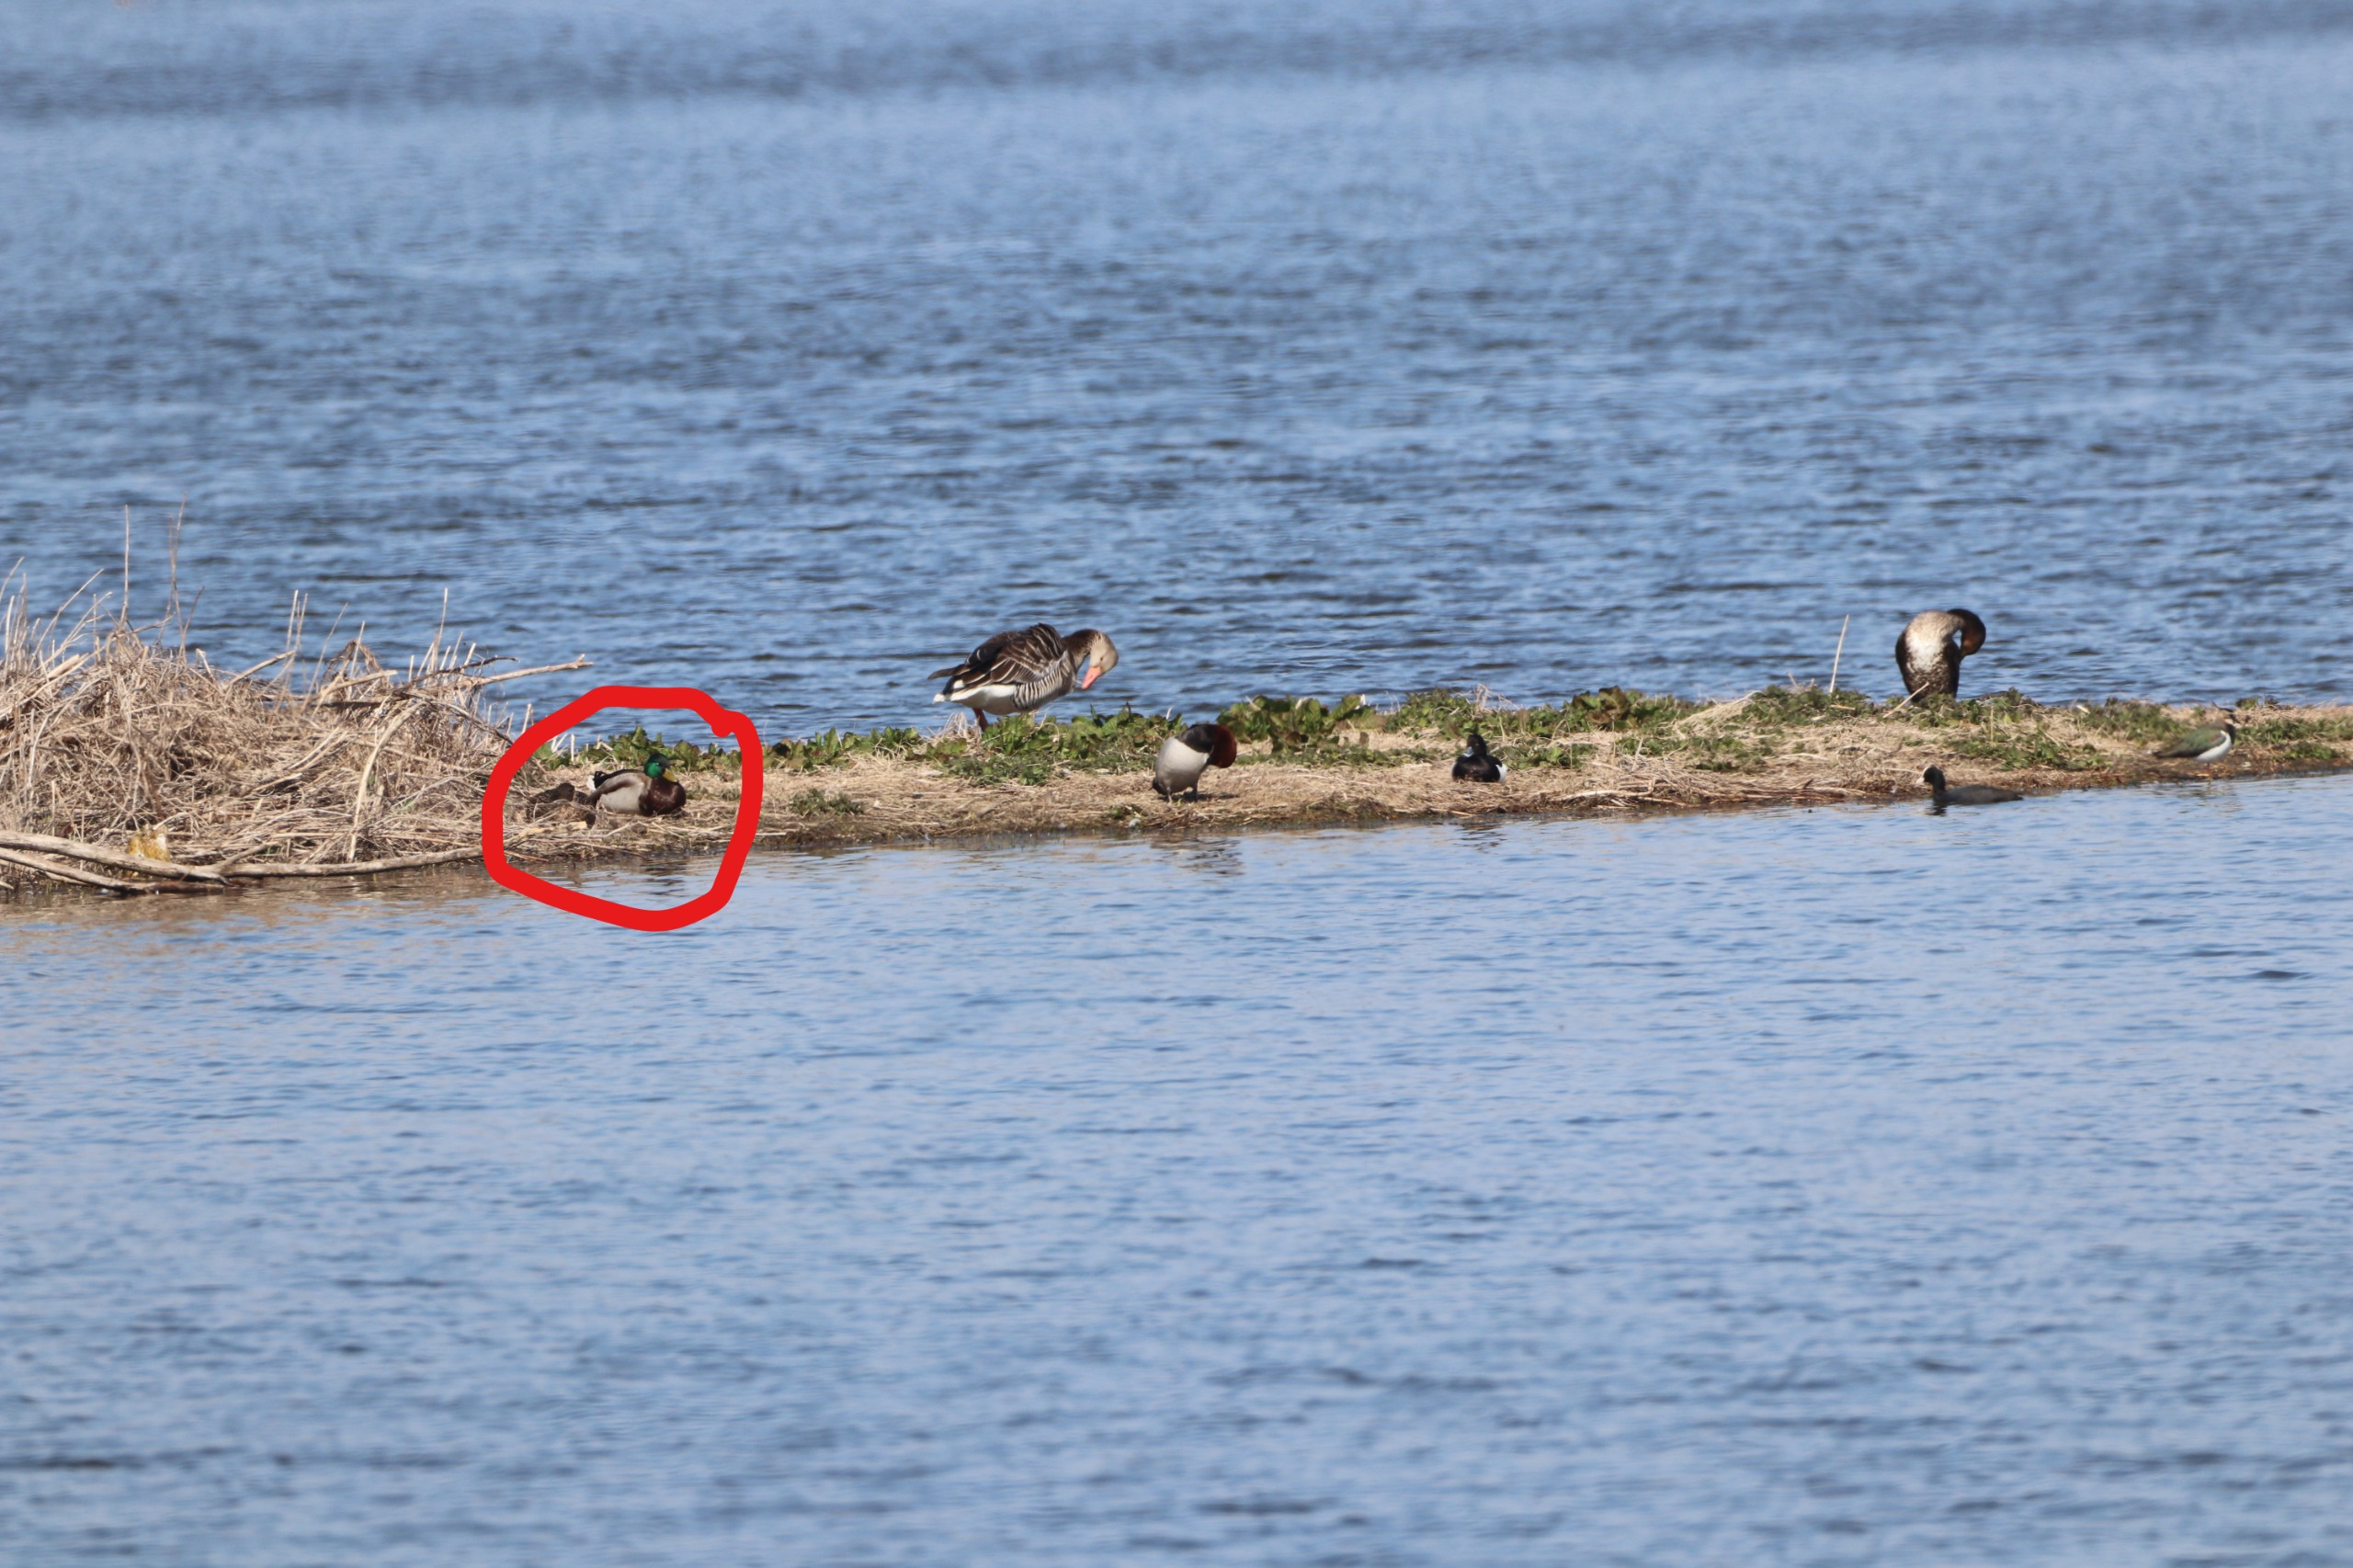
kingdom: Animalia
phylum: Chordata
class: Aves
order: Anseriformes
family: Anatidae
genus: Anas
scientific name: Anas platyrhynchos
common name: Gråand
